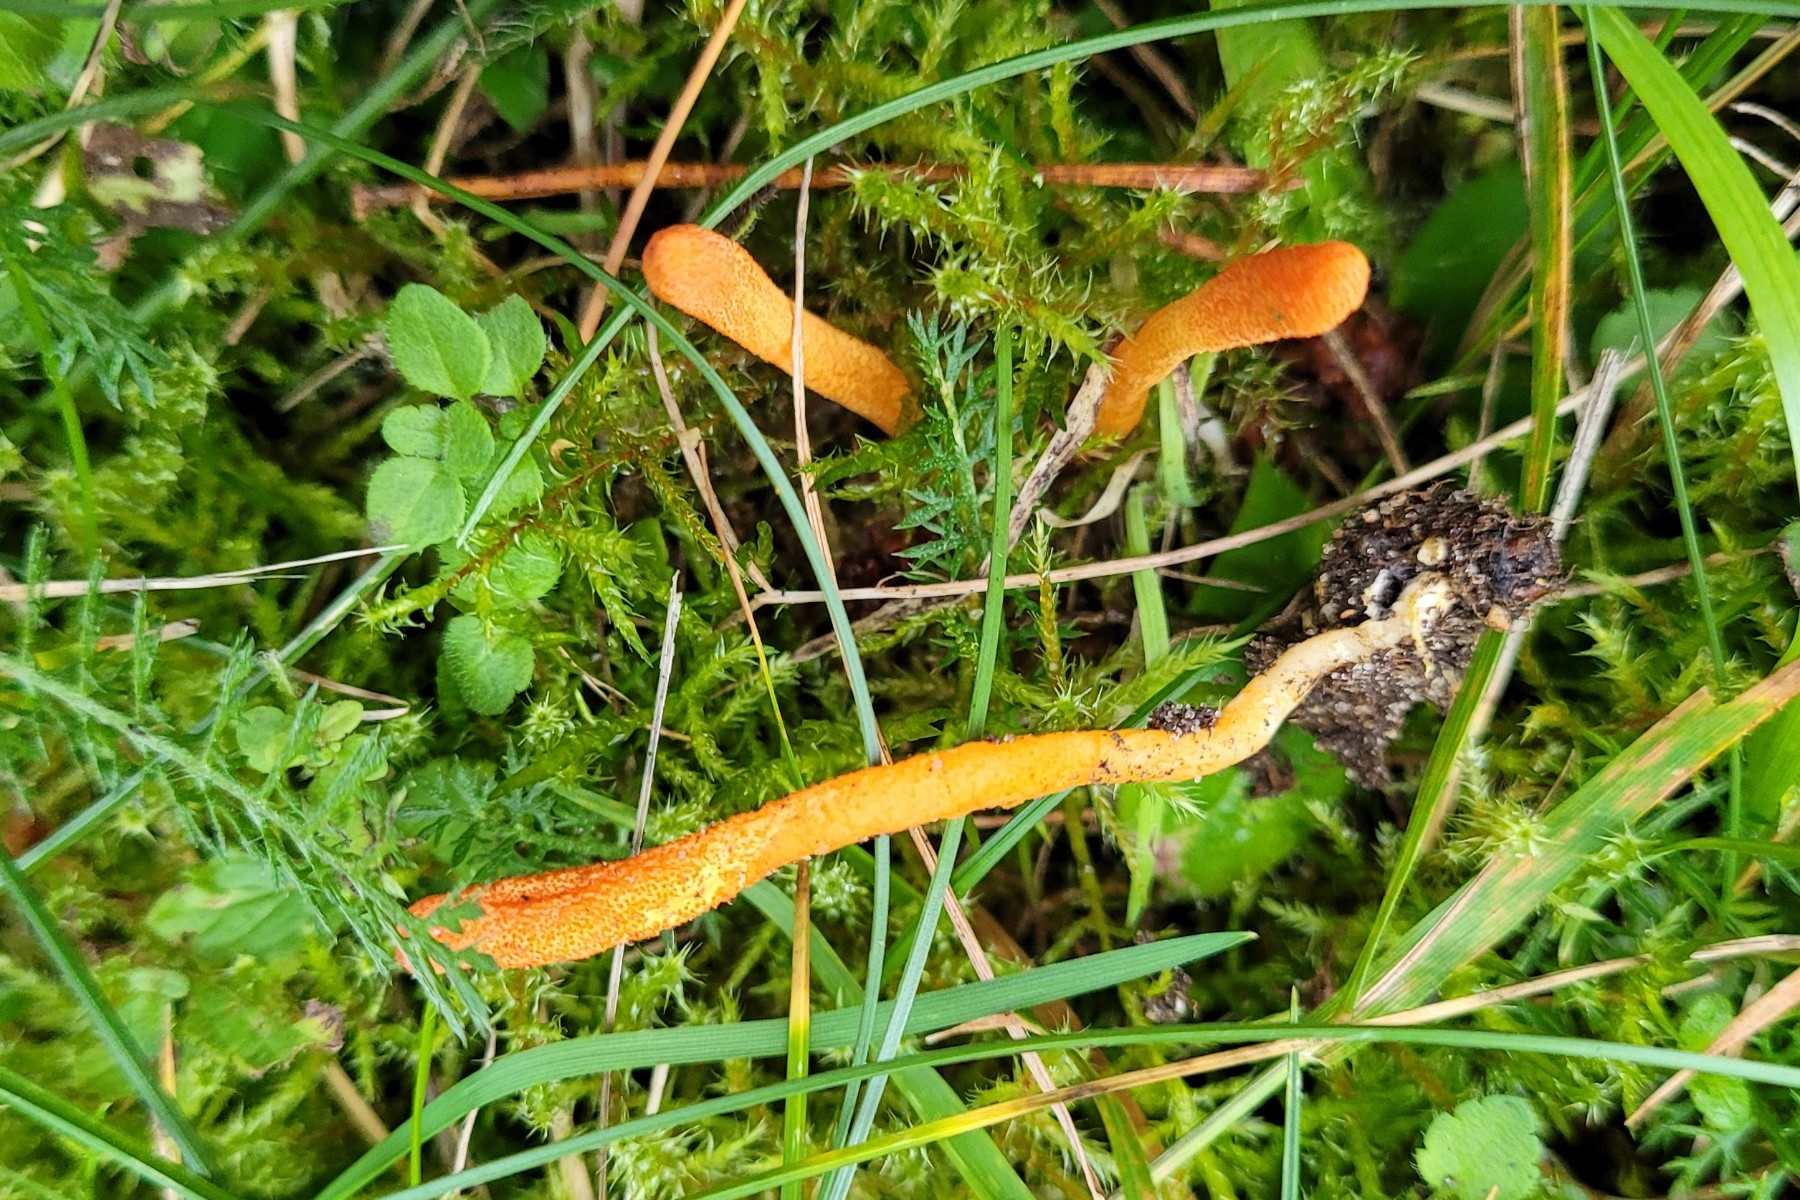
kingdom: Fungi
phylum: Ascomycota
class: Sordariomycetes
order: Hypocreales
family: Cordycipitaceae
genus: Cordyceps
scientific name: Cordyceps militaris
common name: puppe-snyltekølle
